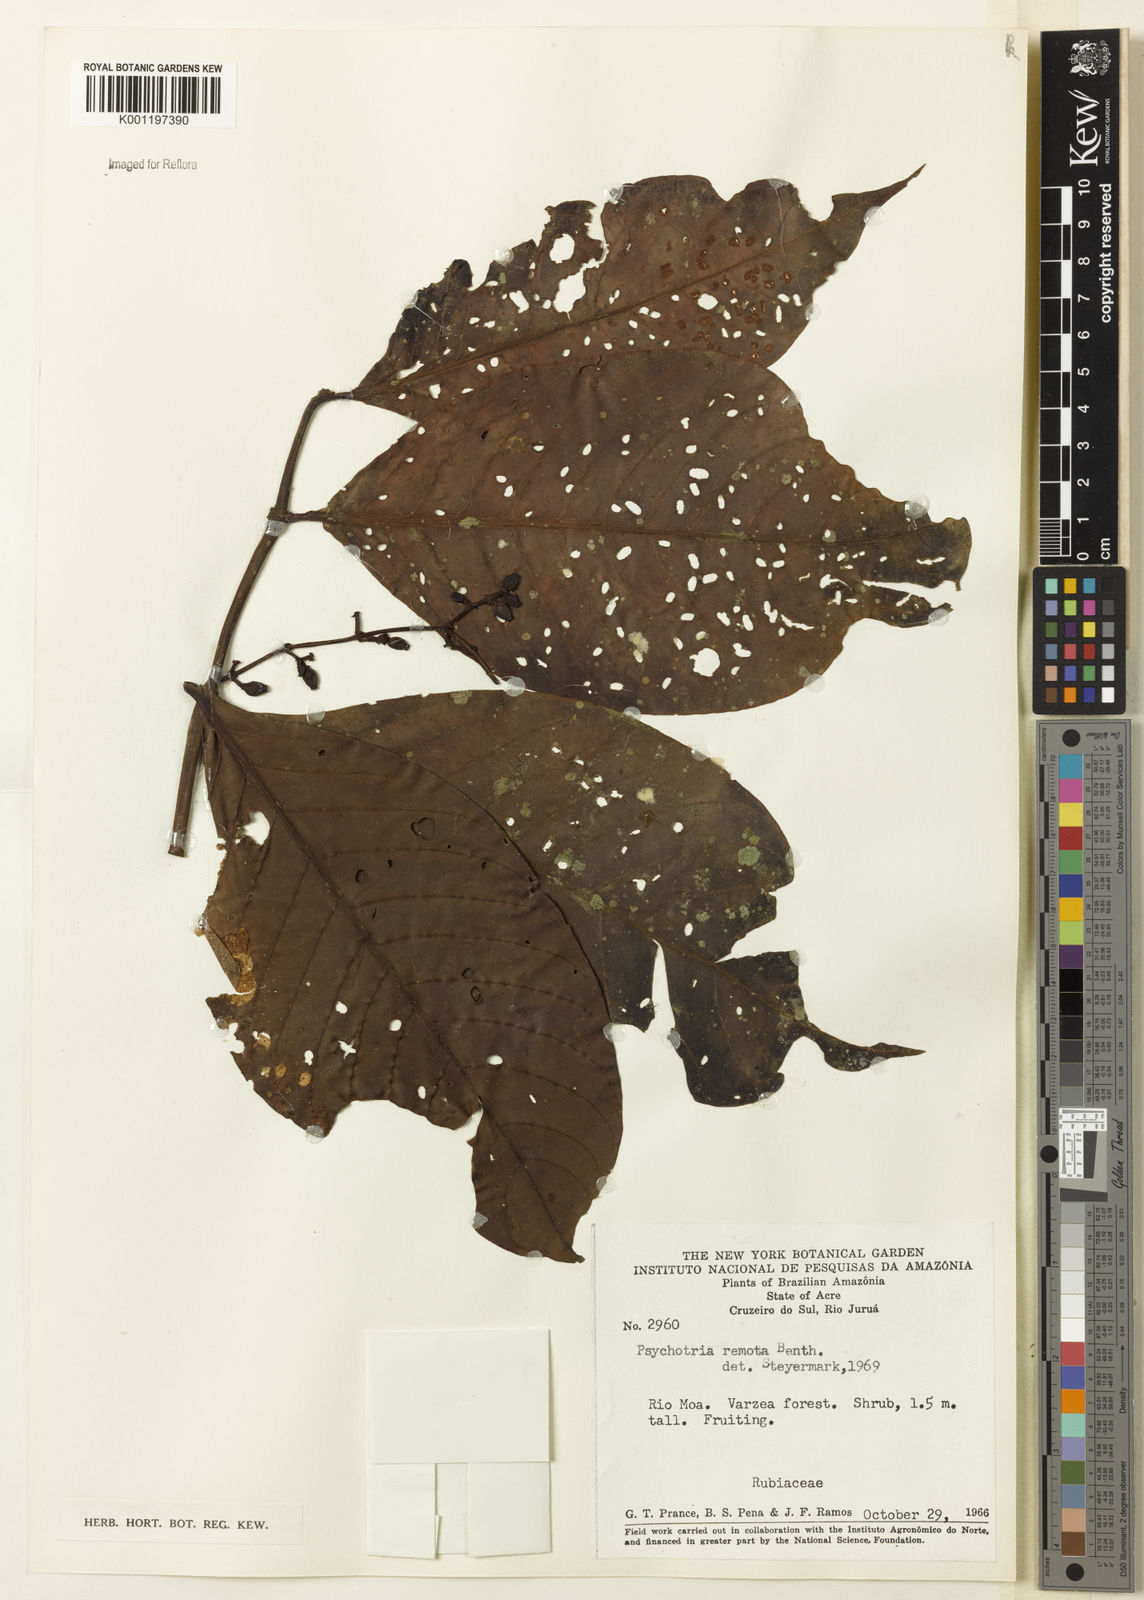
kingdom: Plantae
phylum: Tracheophyta
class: Magnoliopsida
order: Gentianales
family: Rubiaceae
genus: Psychotria
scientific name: Psychotria remota
